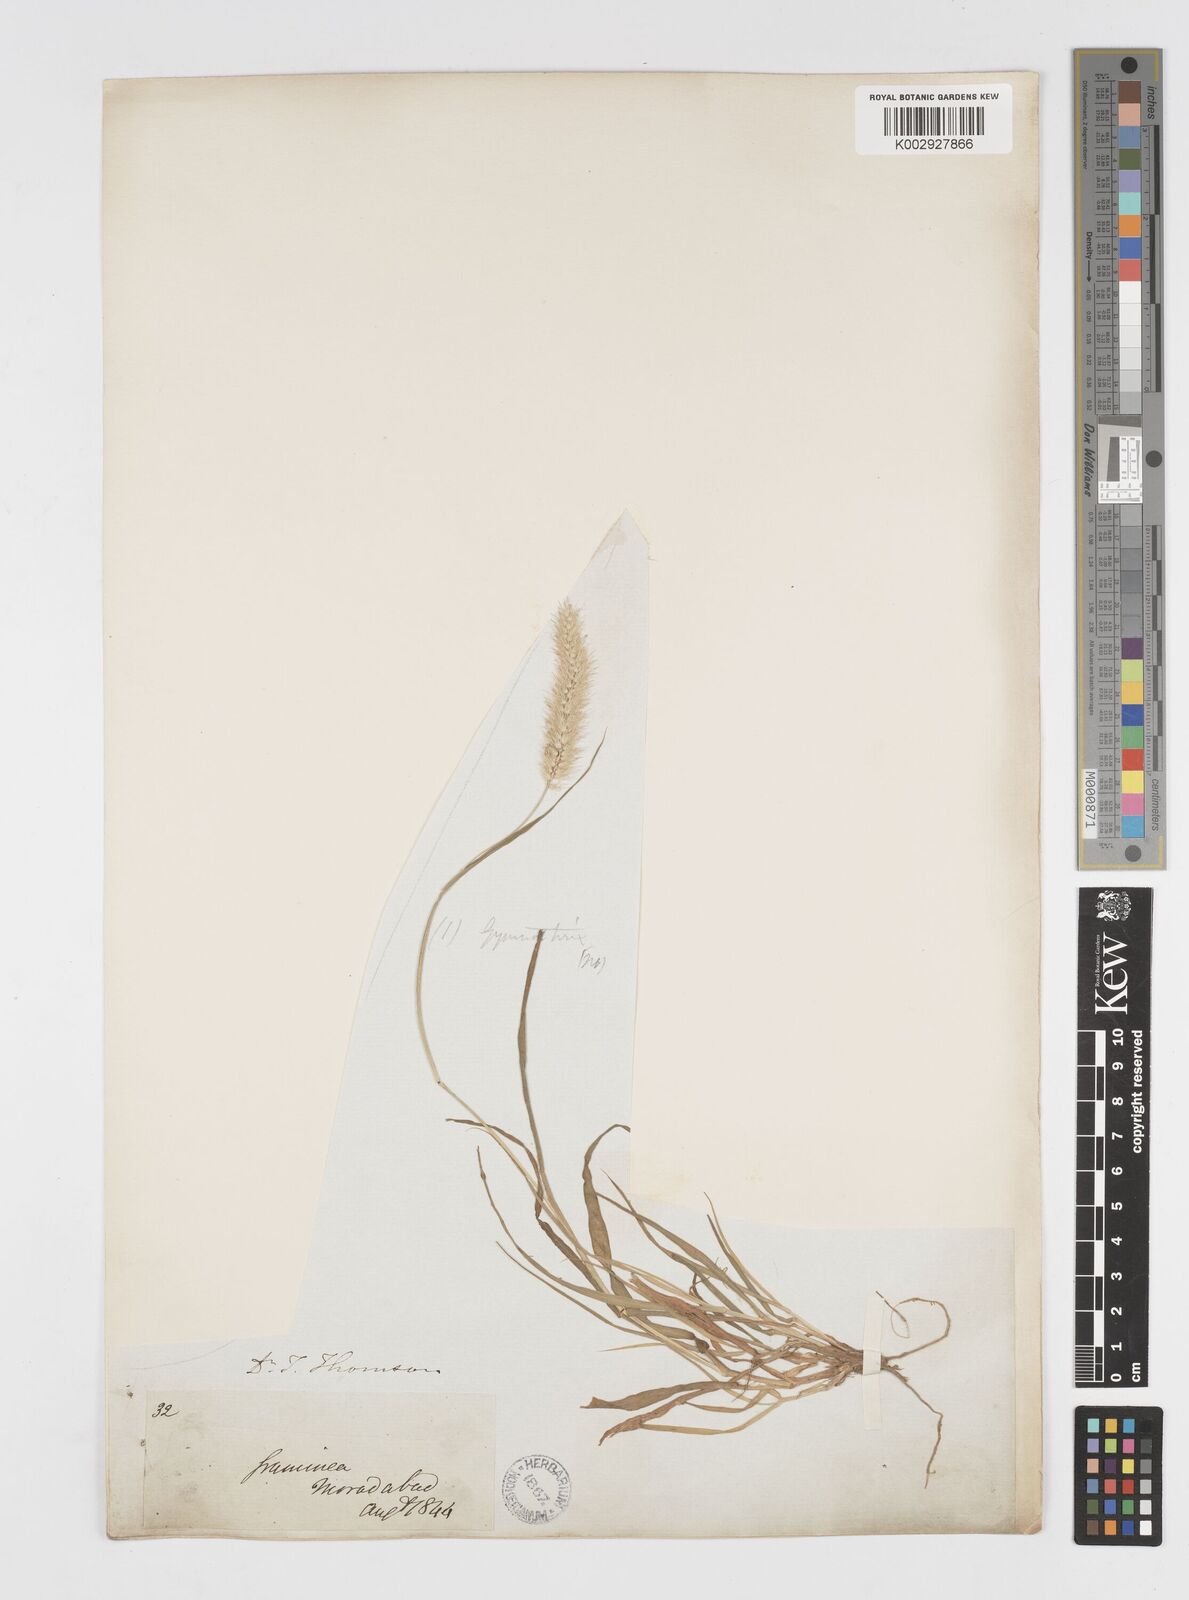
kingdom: Plantae
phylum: Tracheophyta
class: Liliopsida
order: Poales
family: Poaceae
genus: Cenchrus
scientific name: Cenchrus ciliaris
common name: Buffelgrass
